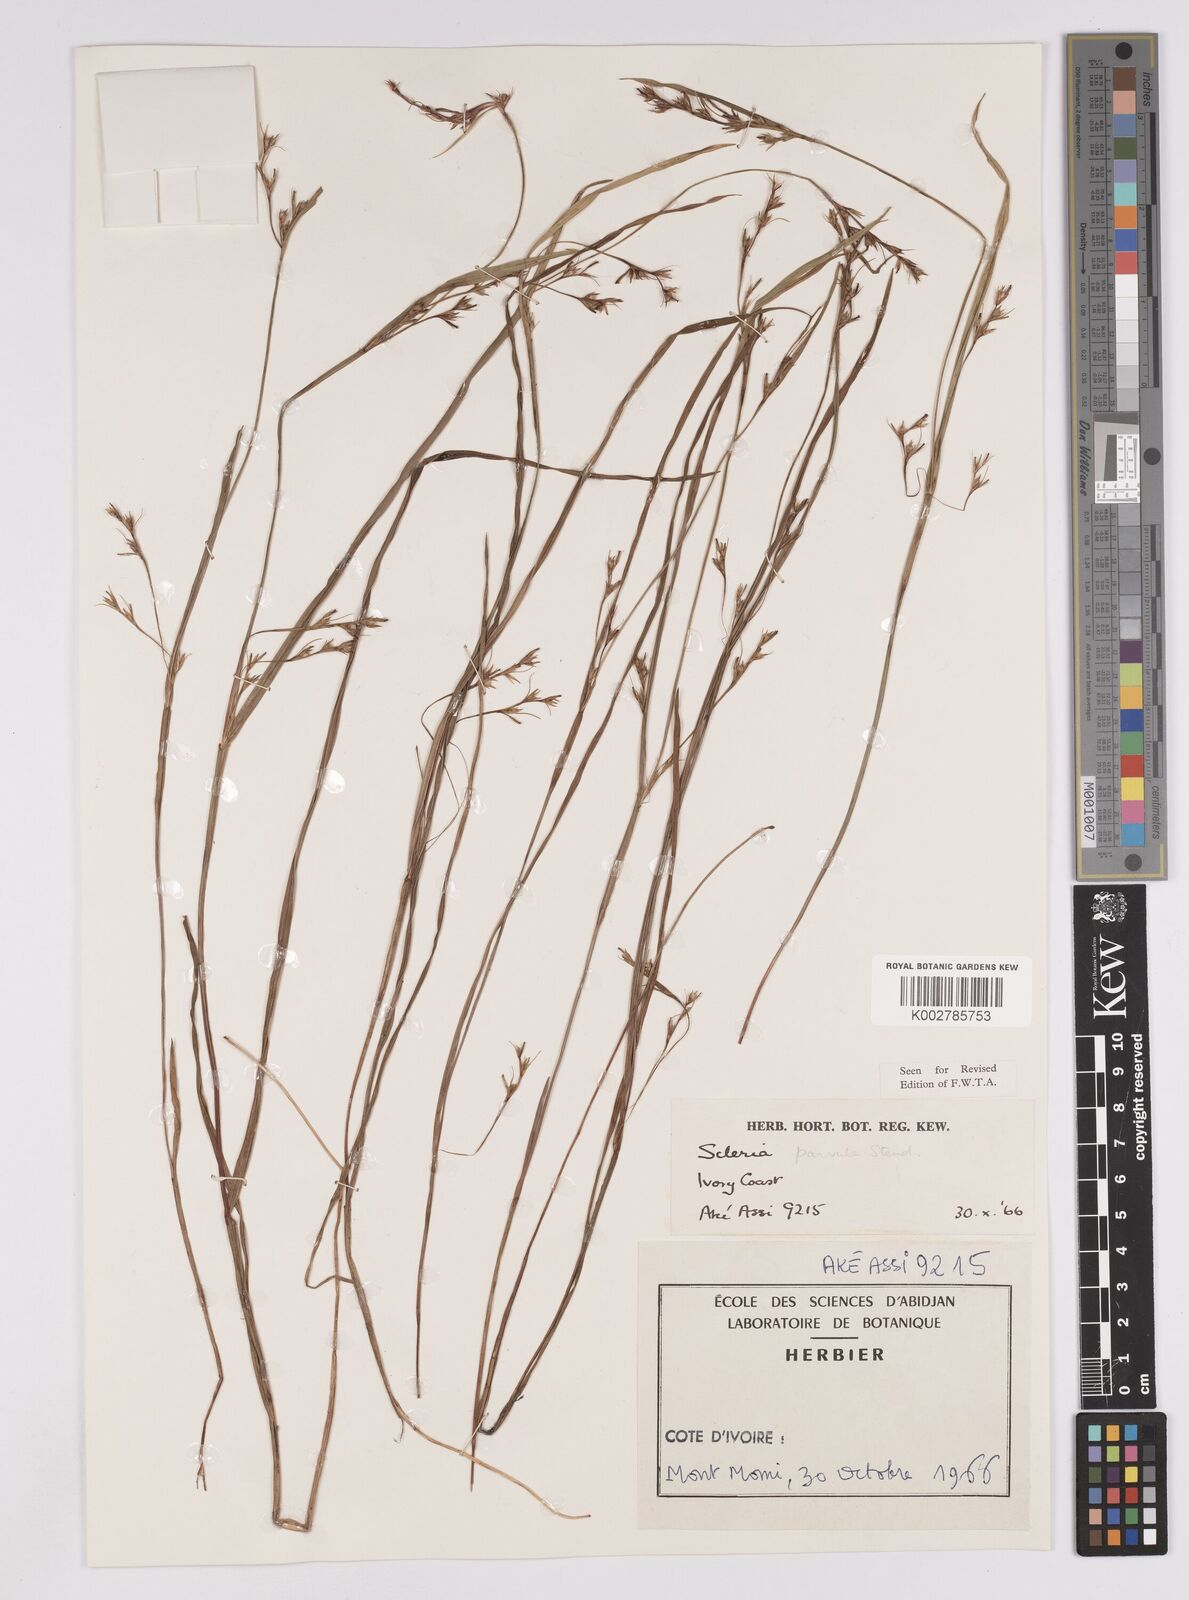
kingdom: Plantae
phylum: Tracheophyta
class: Liliopsida
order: Poales
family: Cyperaceae
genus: Scleria
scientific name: Scleria parvula
